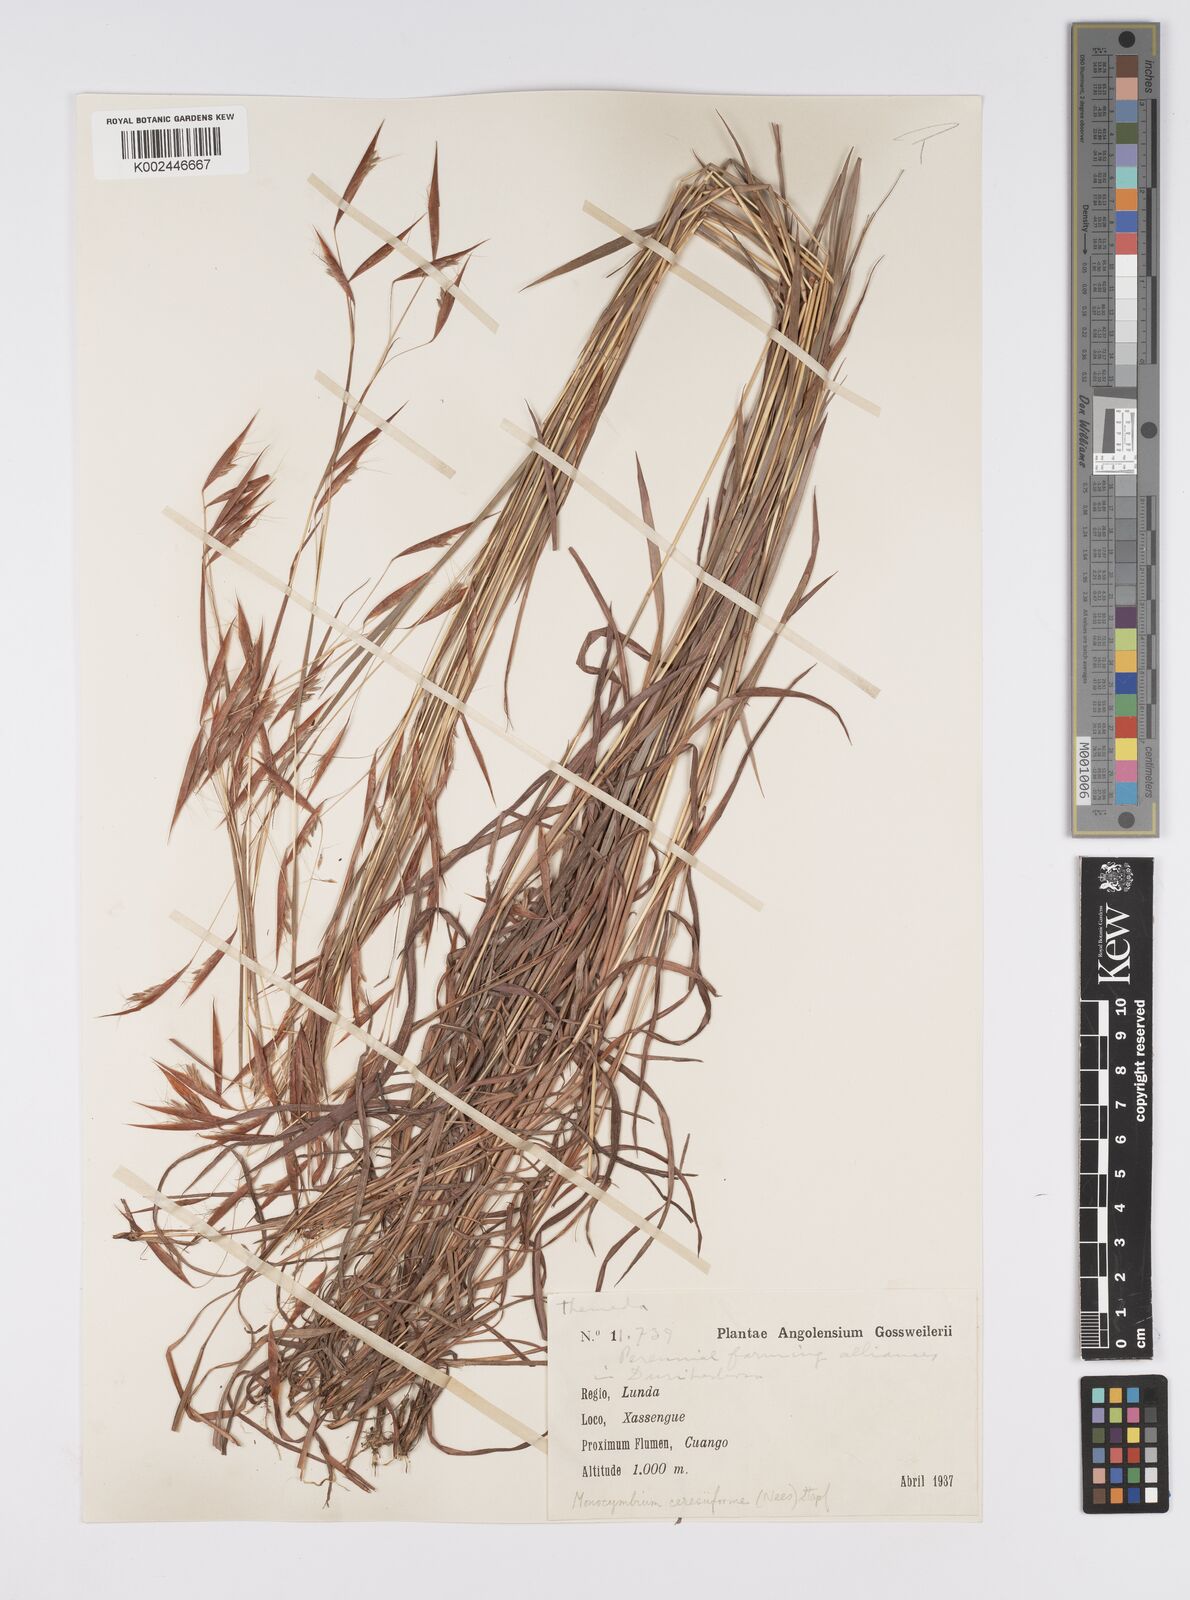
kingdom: Plantae
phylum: Tracheophyta
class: Liliopsida
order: Poales
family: Poaceae
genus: Monocymbium
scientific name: Monocymbium ceresiiforme
